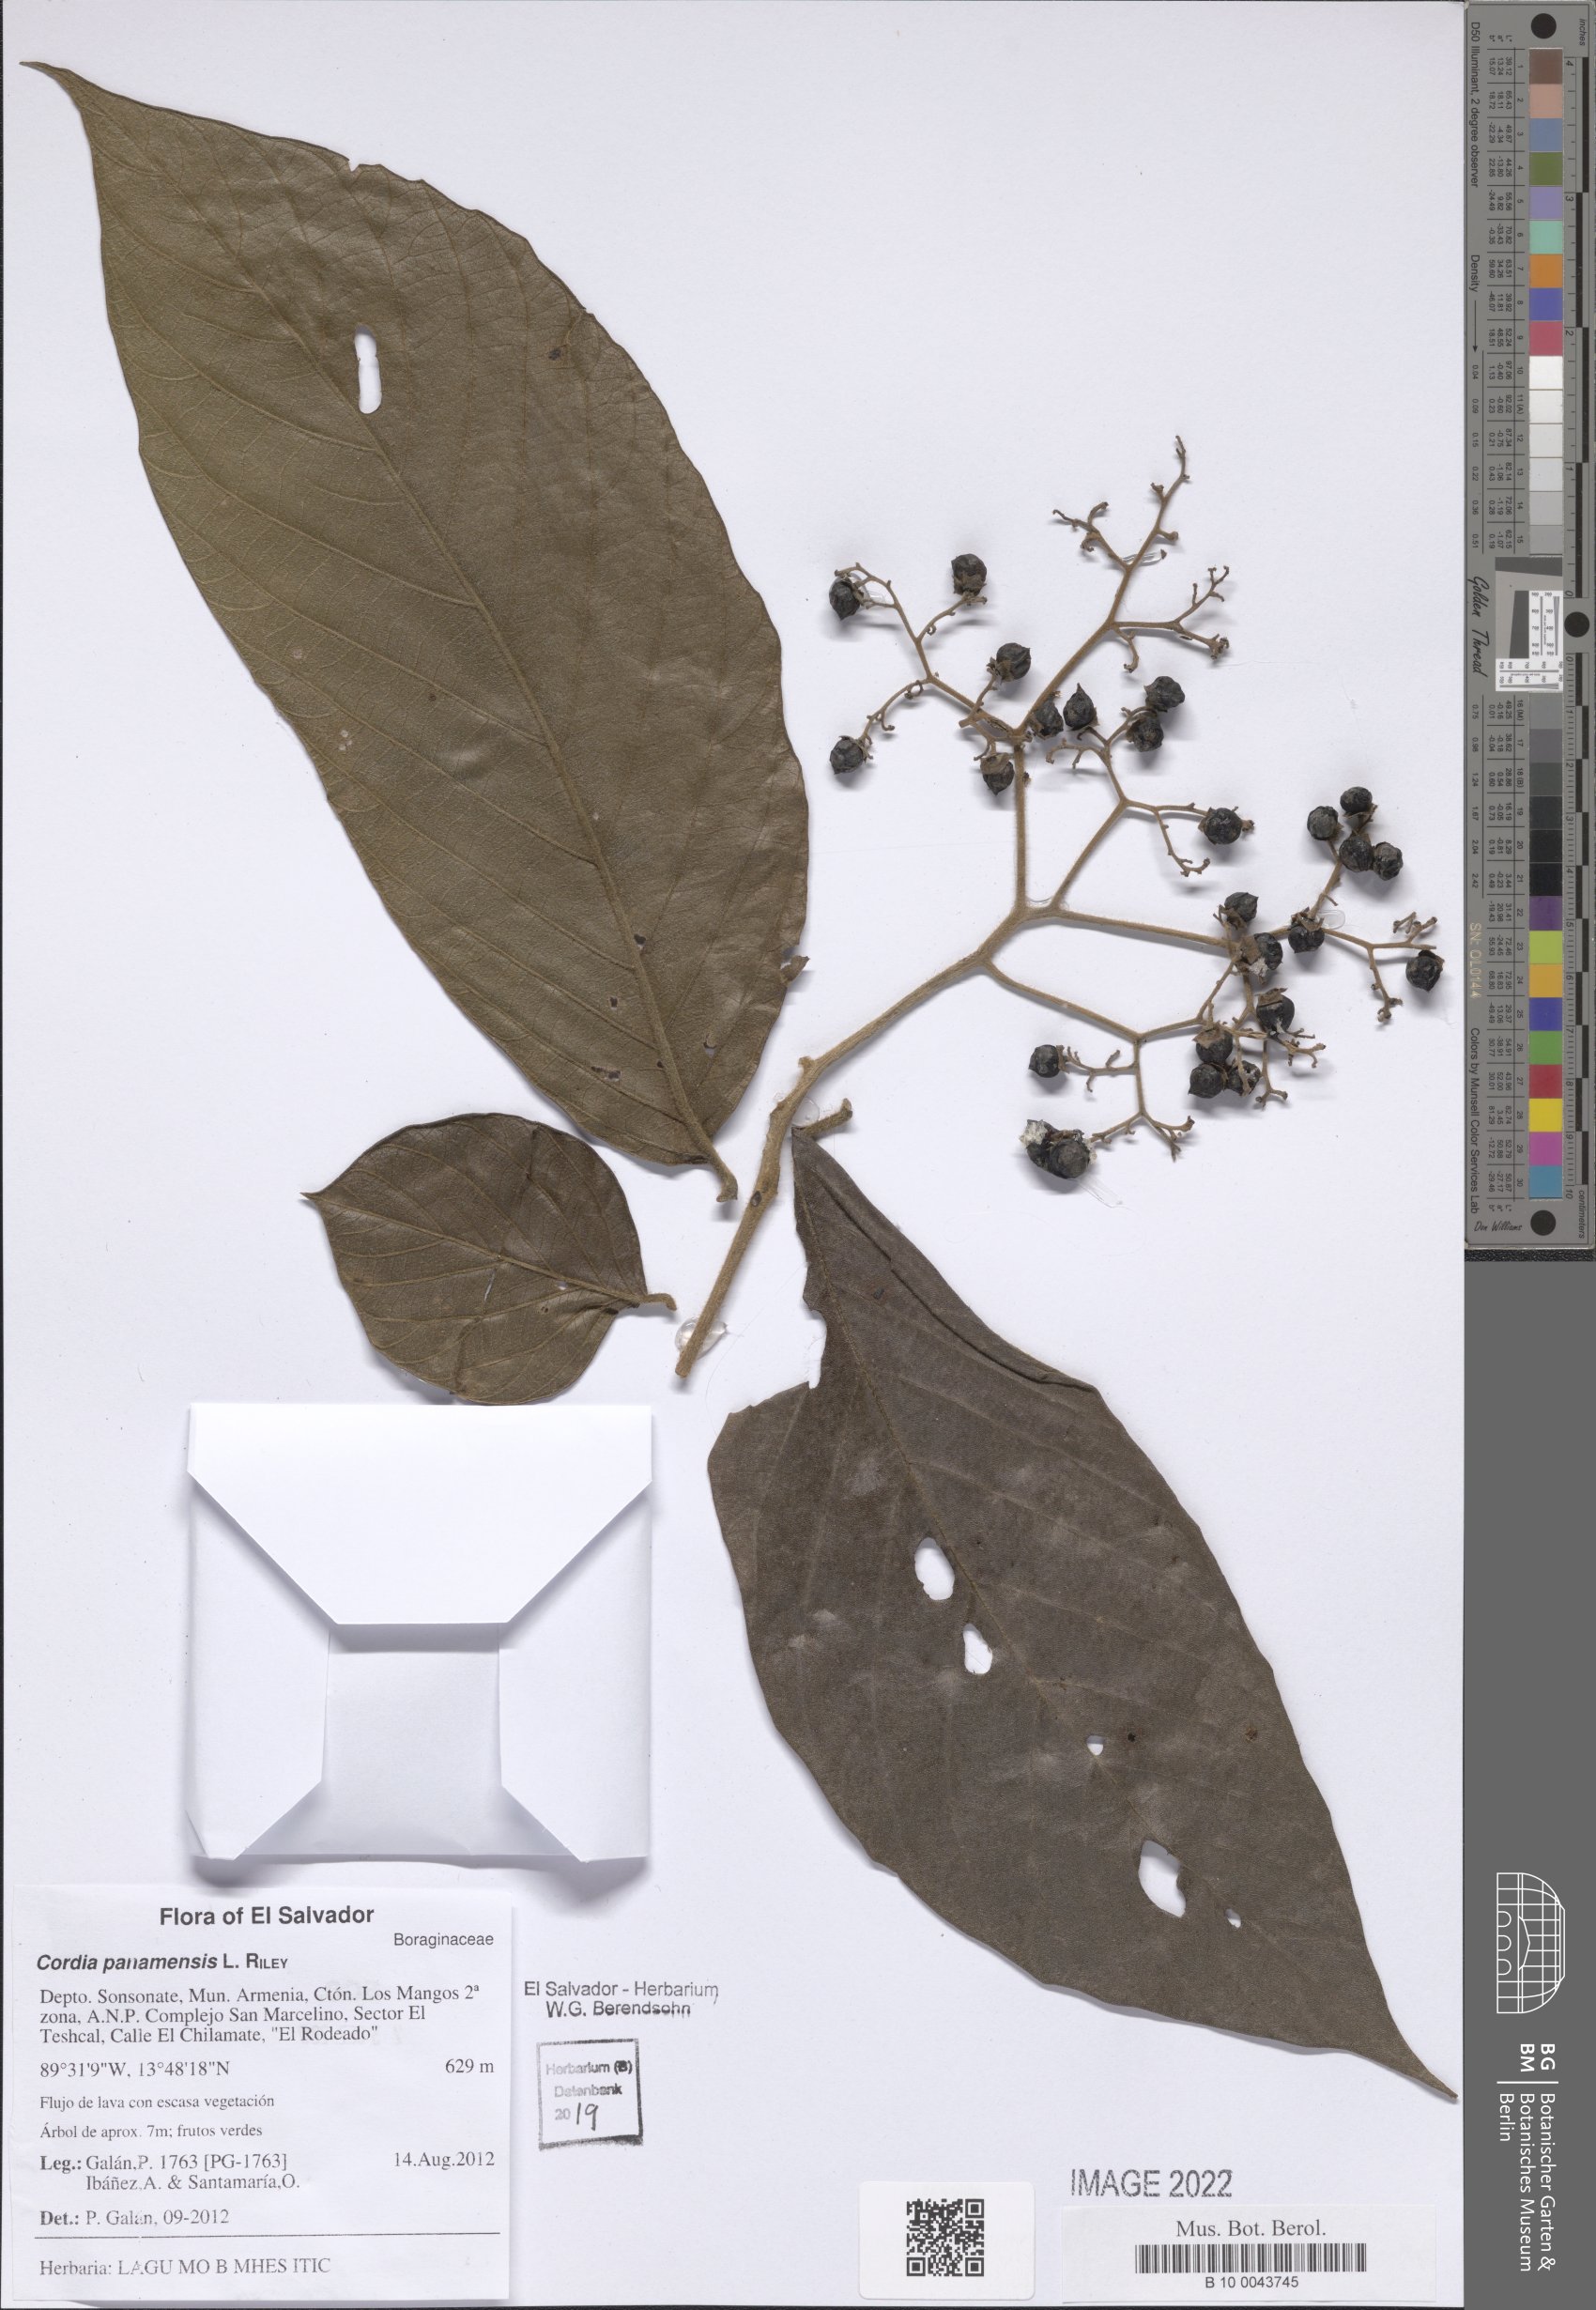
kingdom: Plantae
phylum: Tracheophyta
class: Magnoliopsida
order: Boraginales
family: Cordiaceae
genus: Cordia
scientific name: Cordia panamensis
